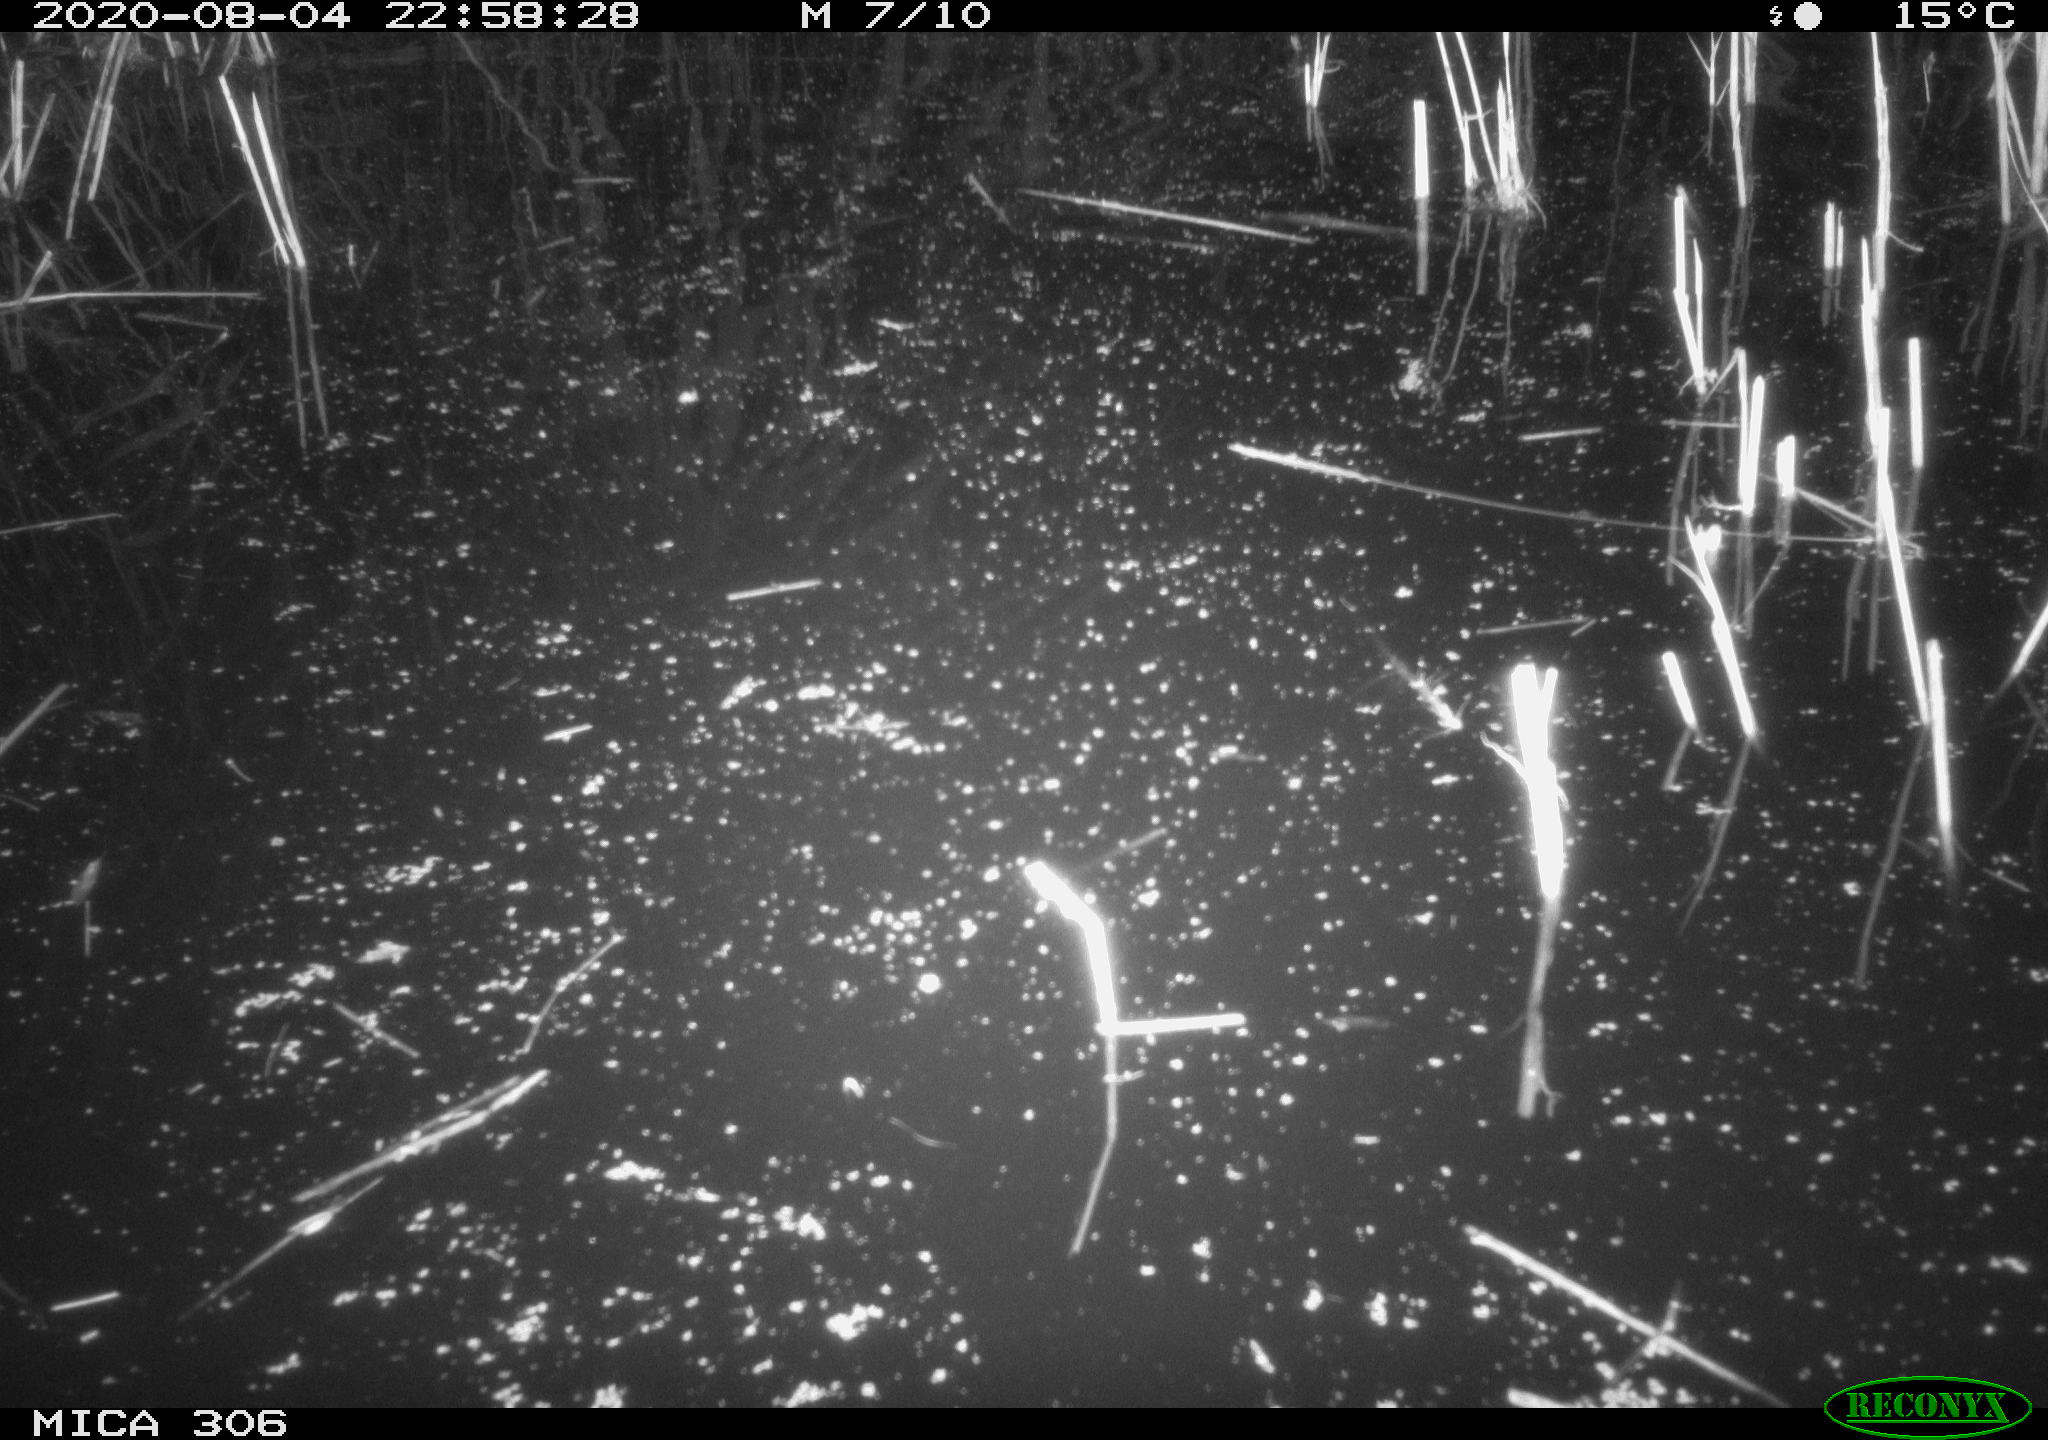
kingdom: Animalia
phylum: Chordata
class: Mammalia
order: Rodentia
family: Muridae
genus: Rattus
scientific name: Rattus norvegicus
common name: Brown rat
